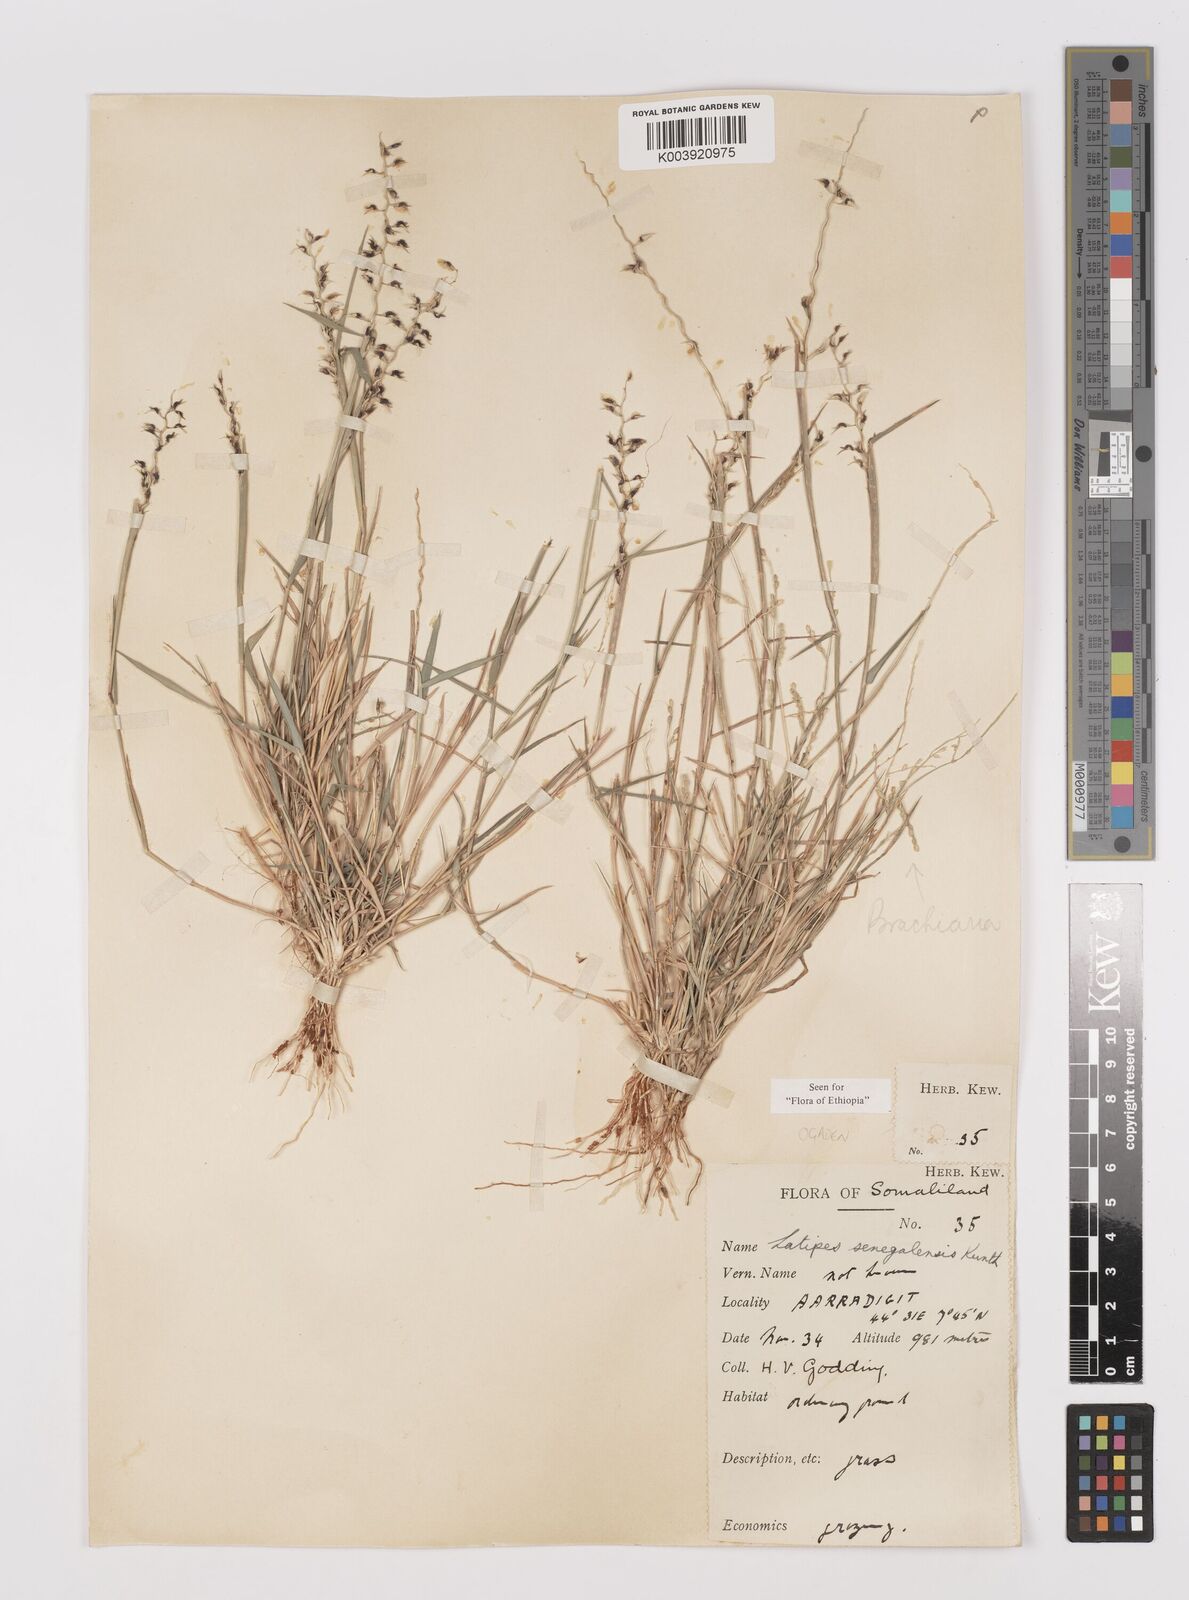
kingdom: Plantae
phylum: Tracheophyta
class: Liliopsida
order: Poales
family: Poaceae
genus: Leptothrium
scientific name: Leptothrium senegalense
